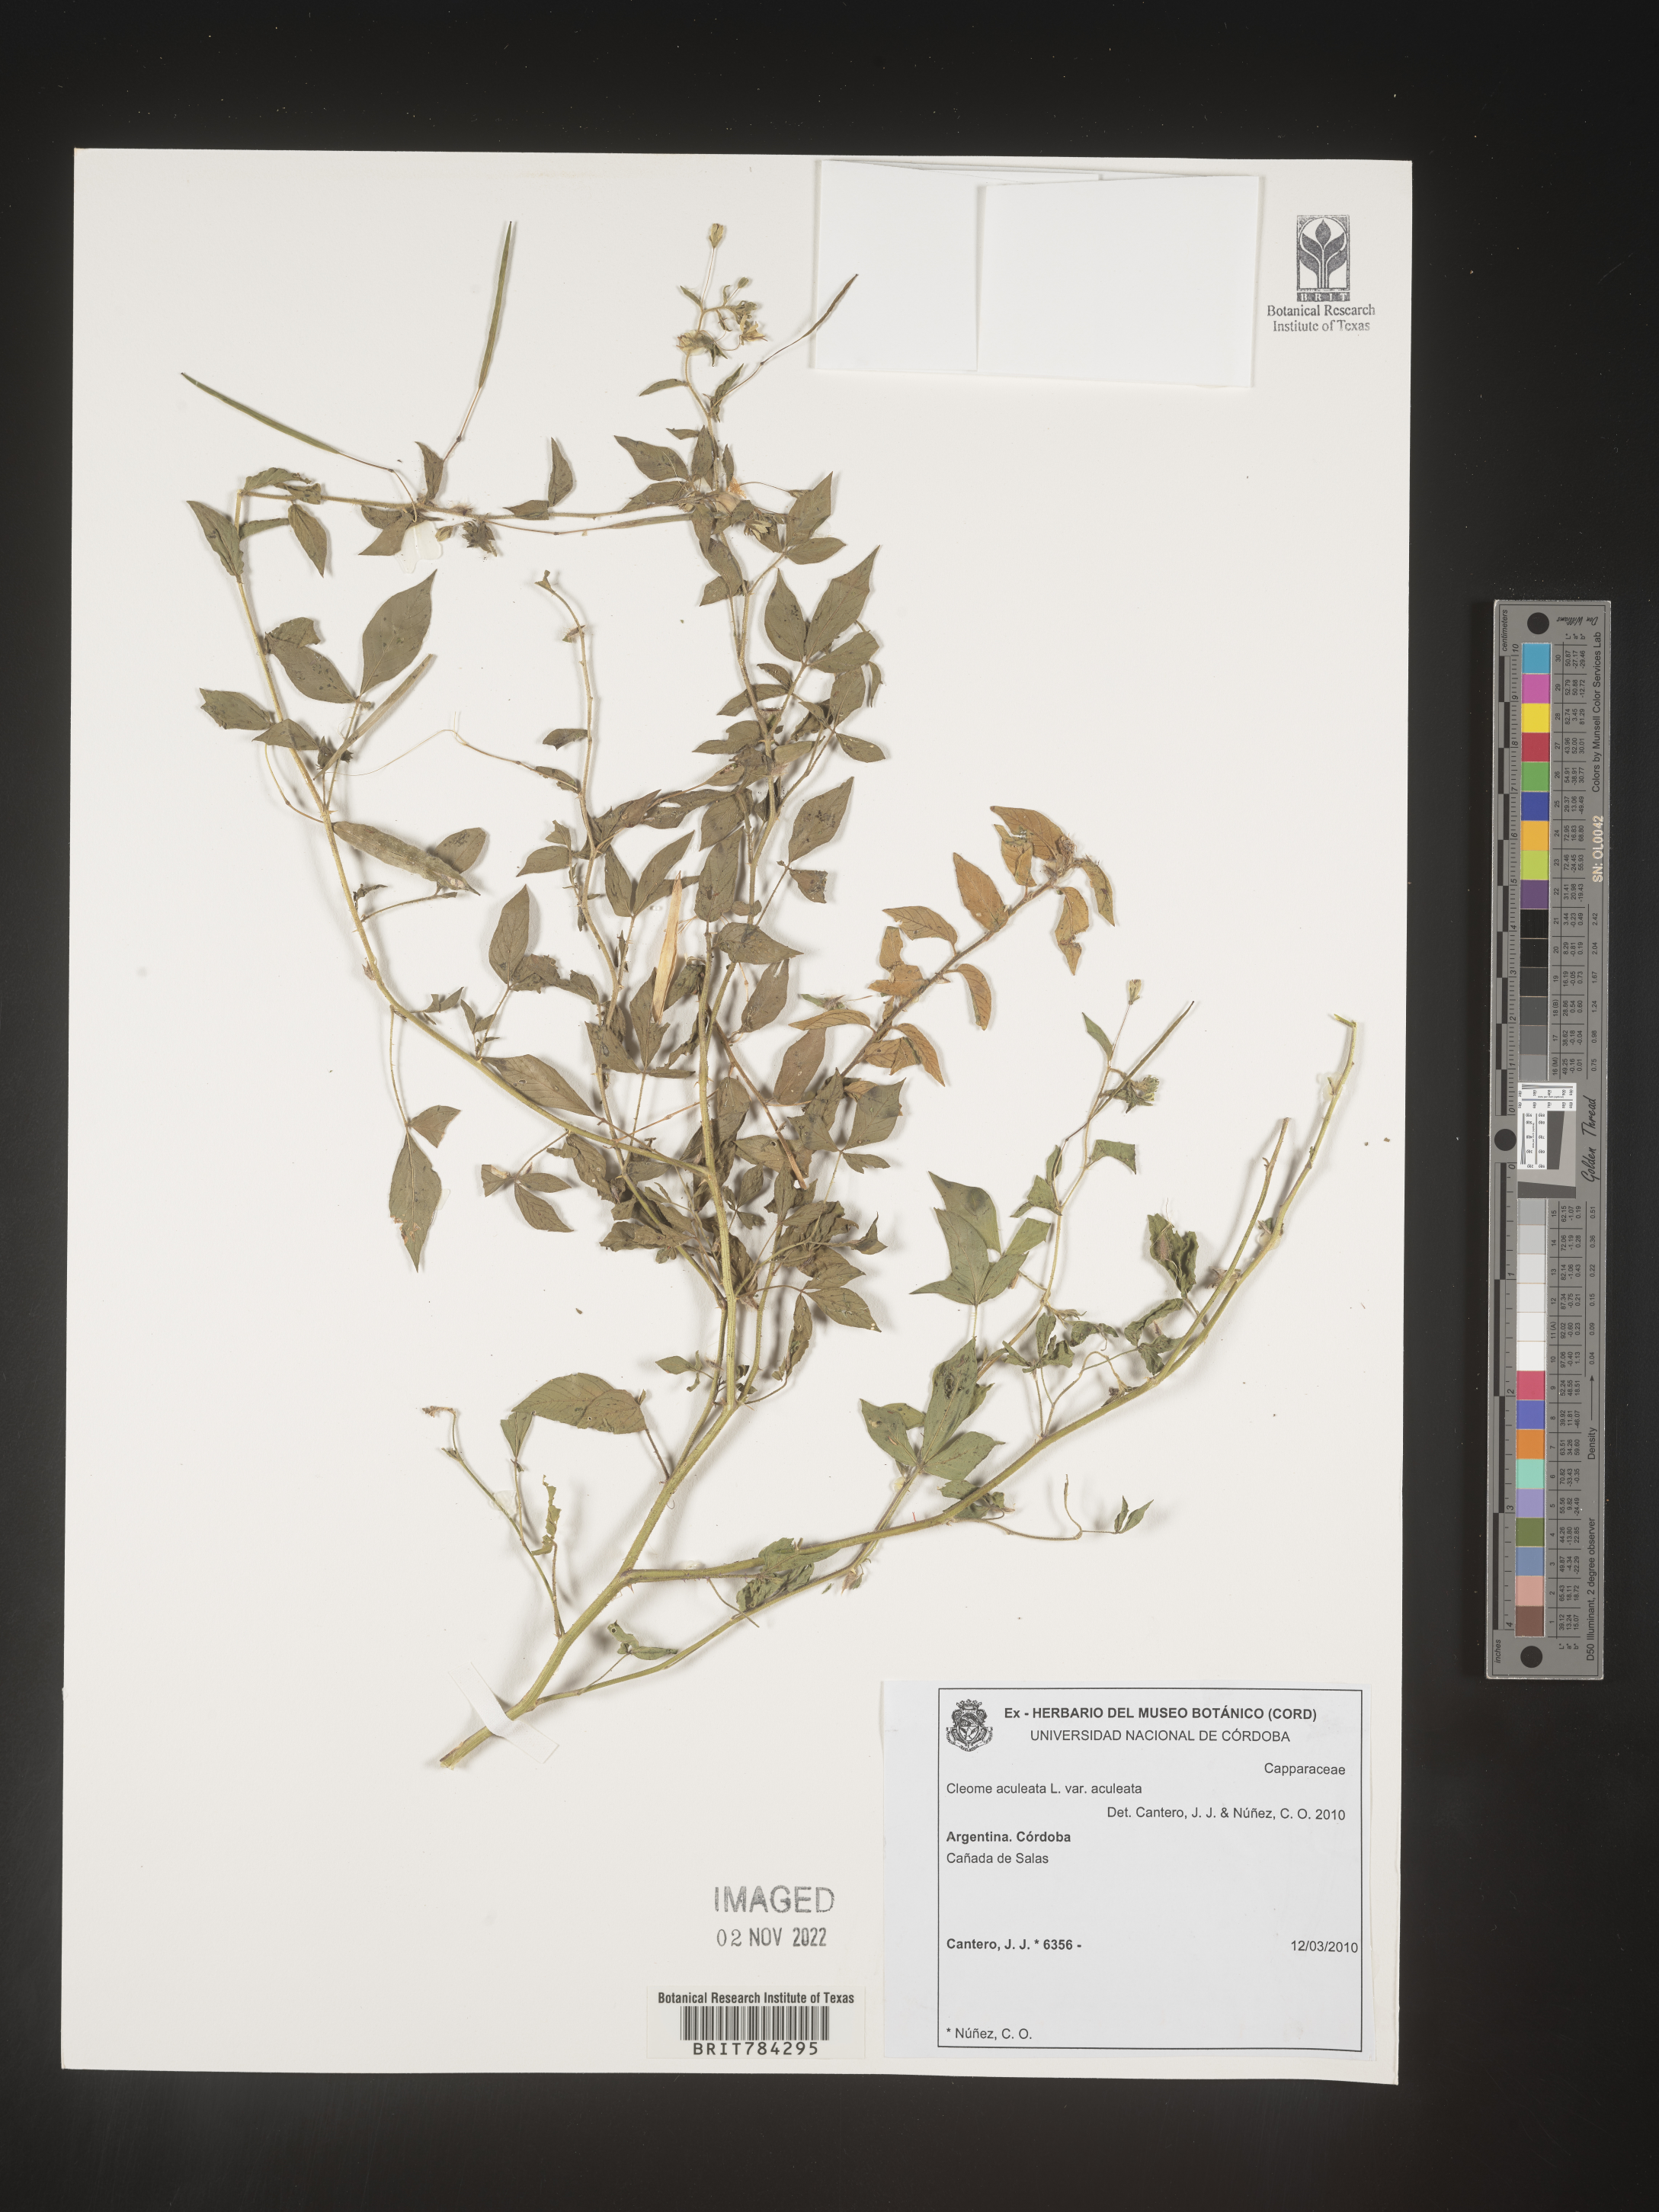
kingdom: Plantae
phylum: Tracheophyta
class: Magnoliopsida
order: Brassicales
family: Cleomaceae
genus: Cleome
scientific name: Cleome
